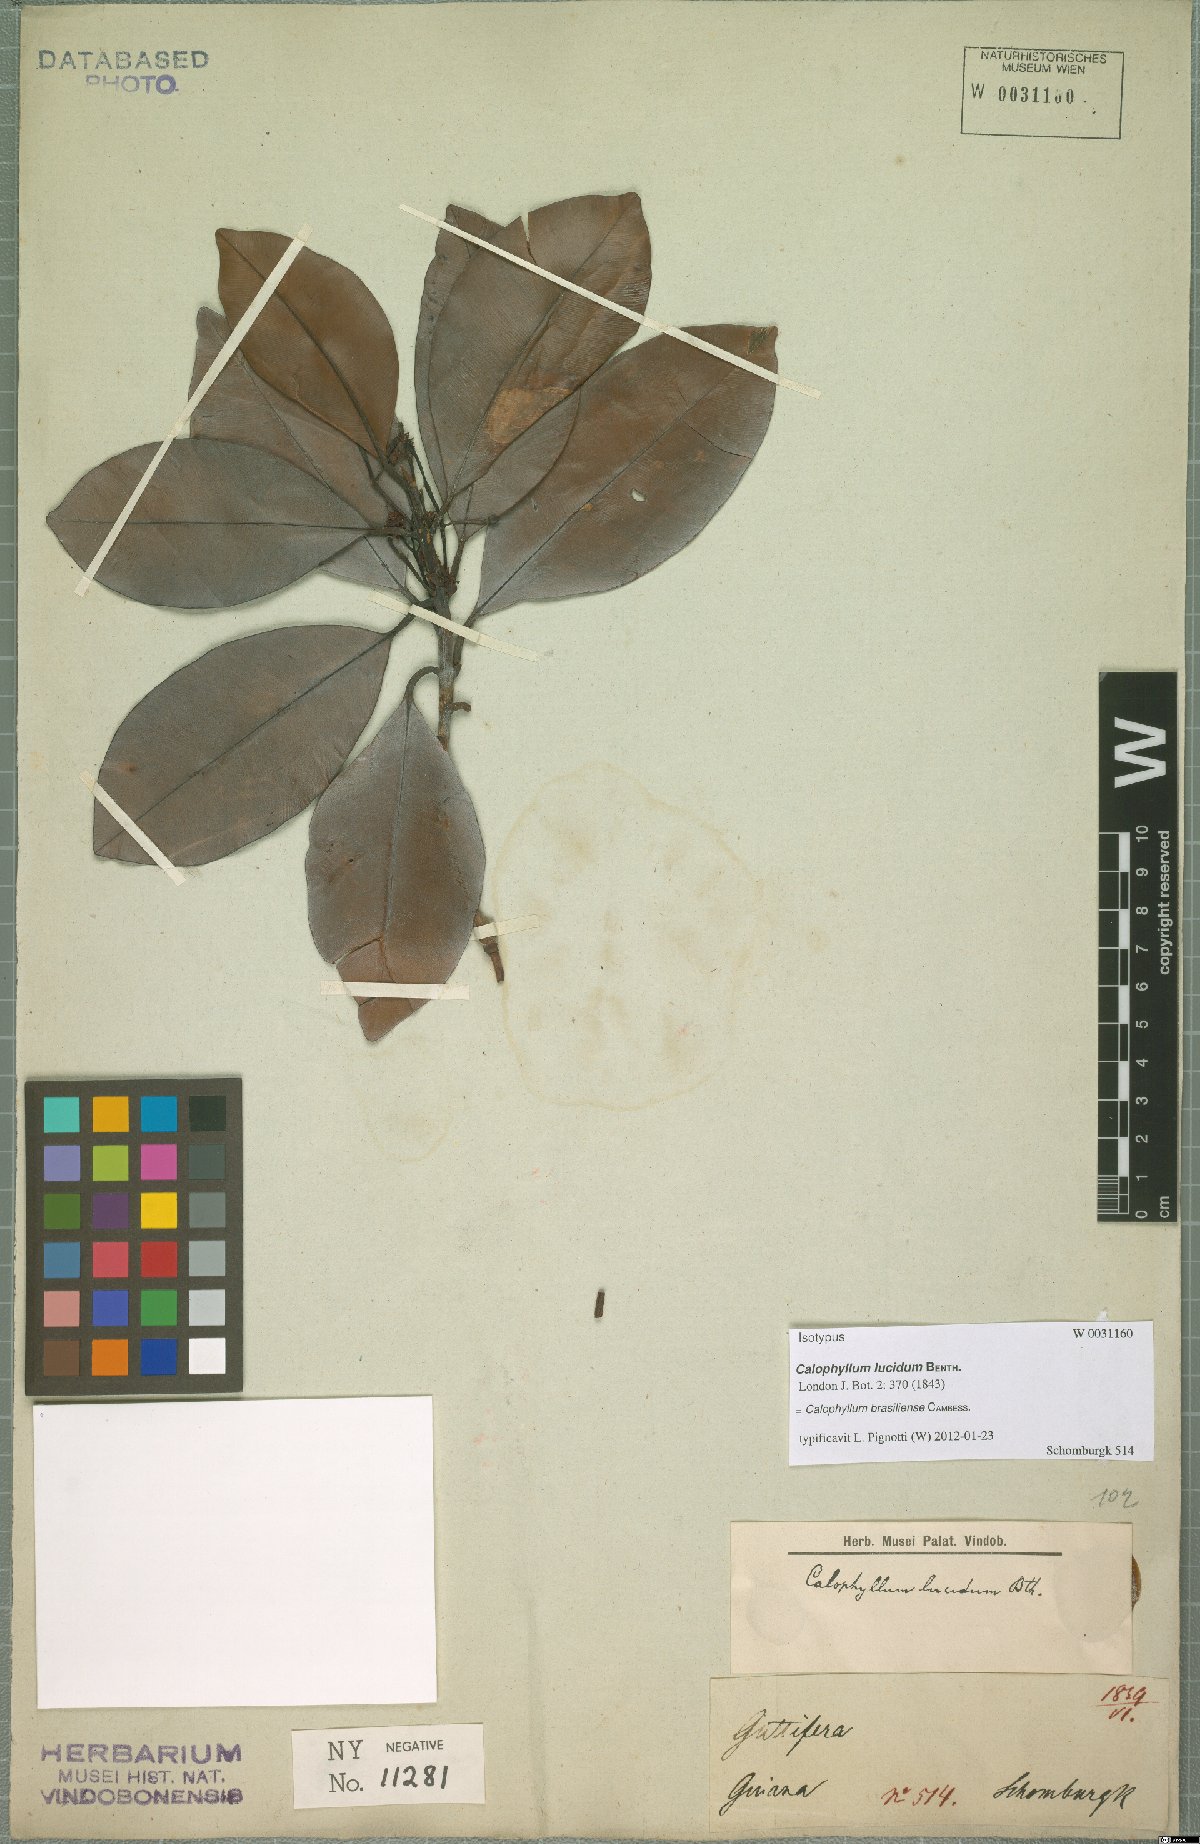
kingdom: Plantae
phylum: Tracheophyta
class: Magnoliopsida
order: Malpighiales
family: Calophyllaceae
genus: Calophyllum
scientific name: Calophyllum brasiliense
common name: Santa maria
